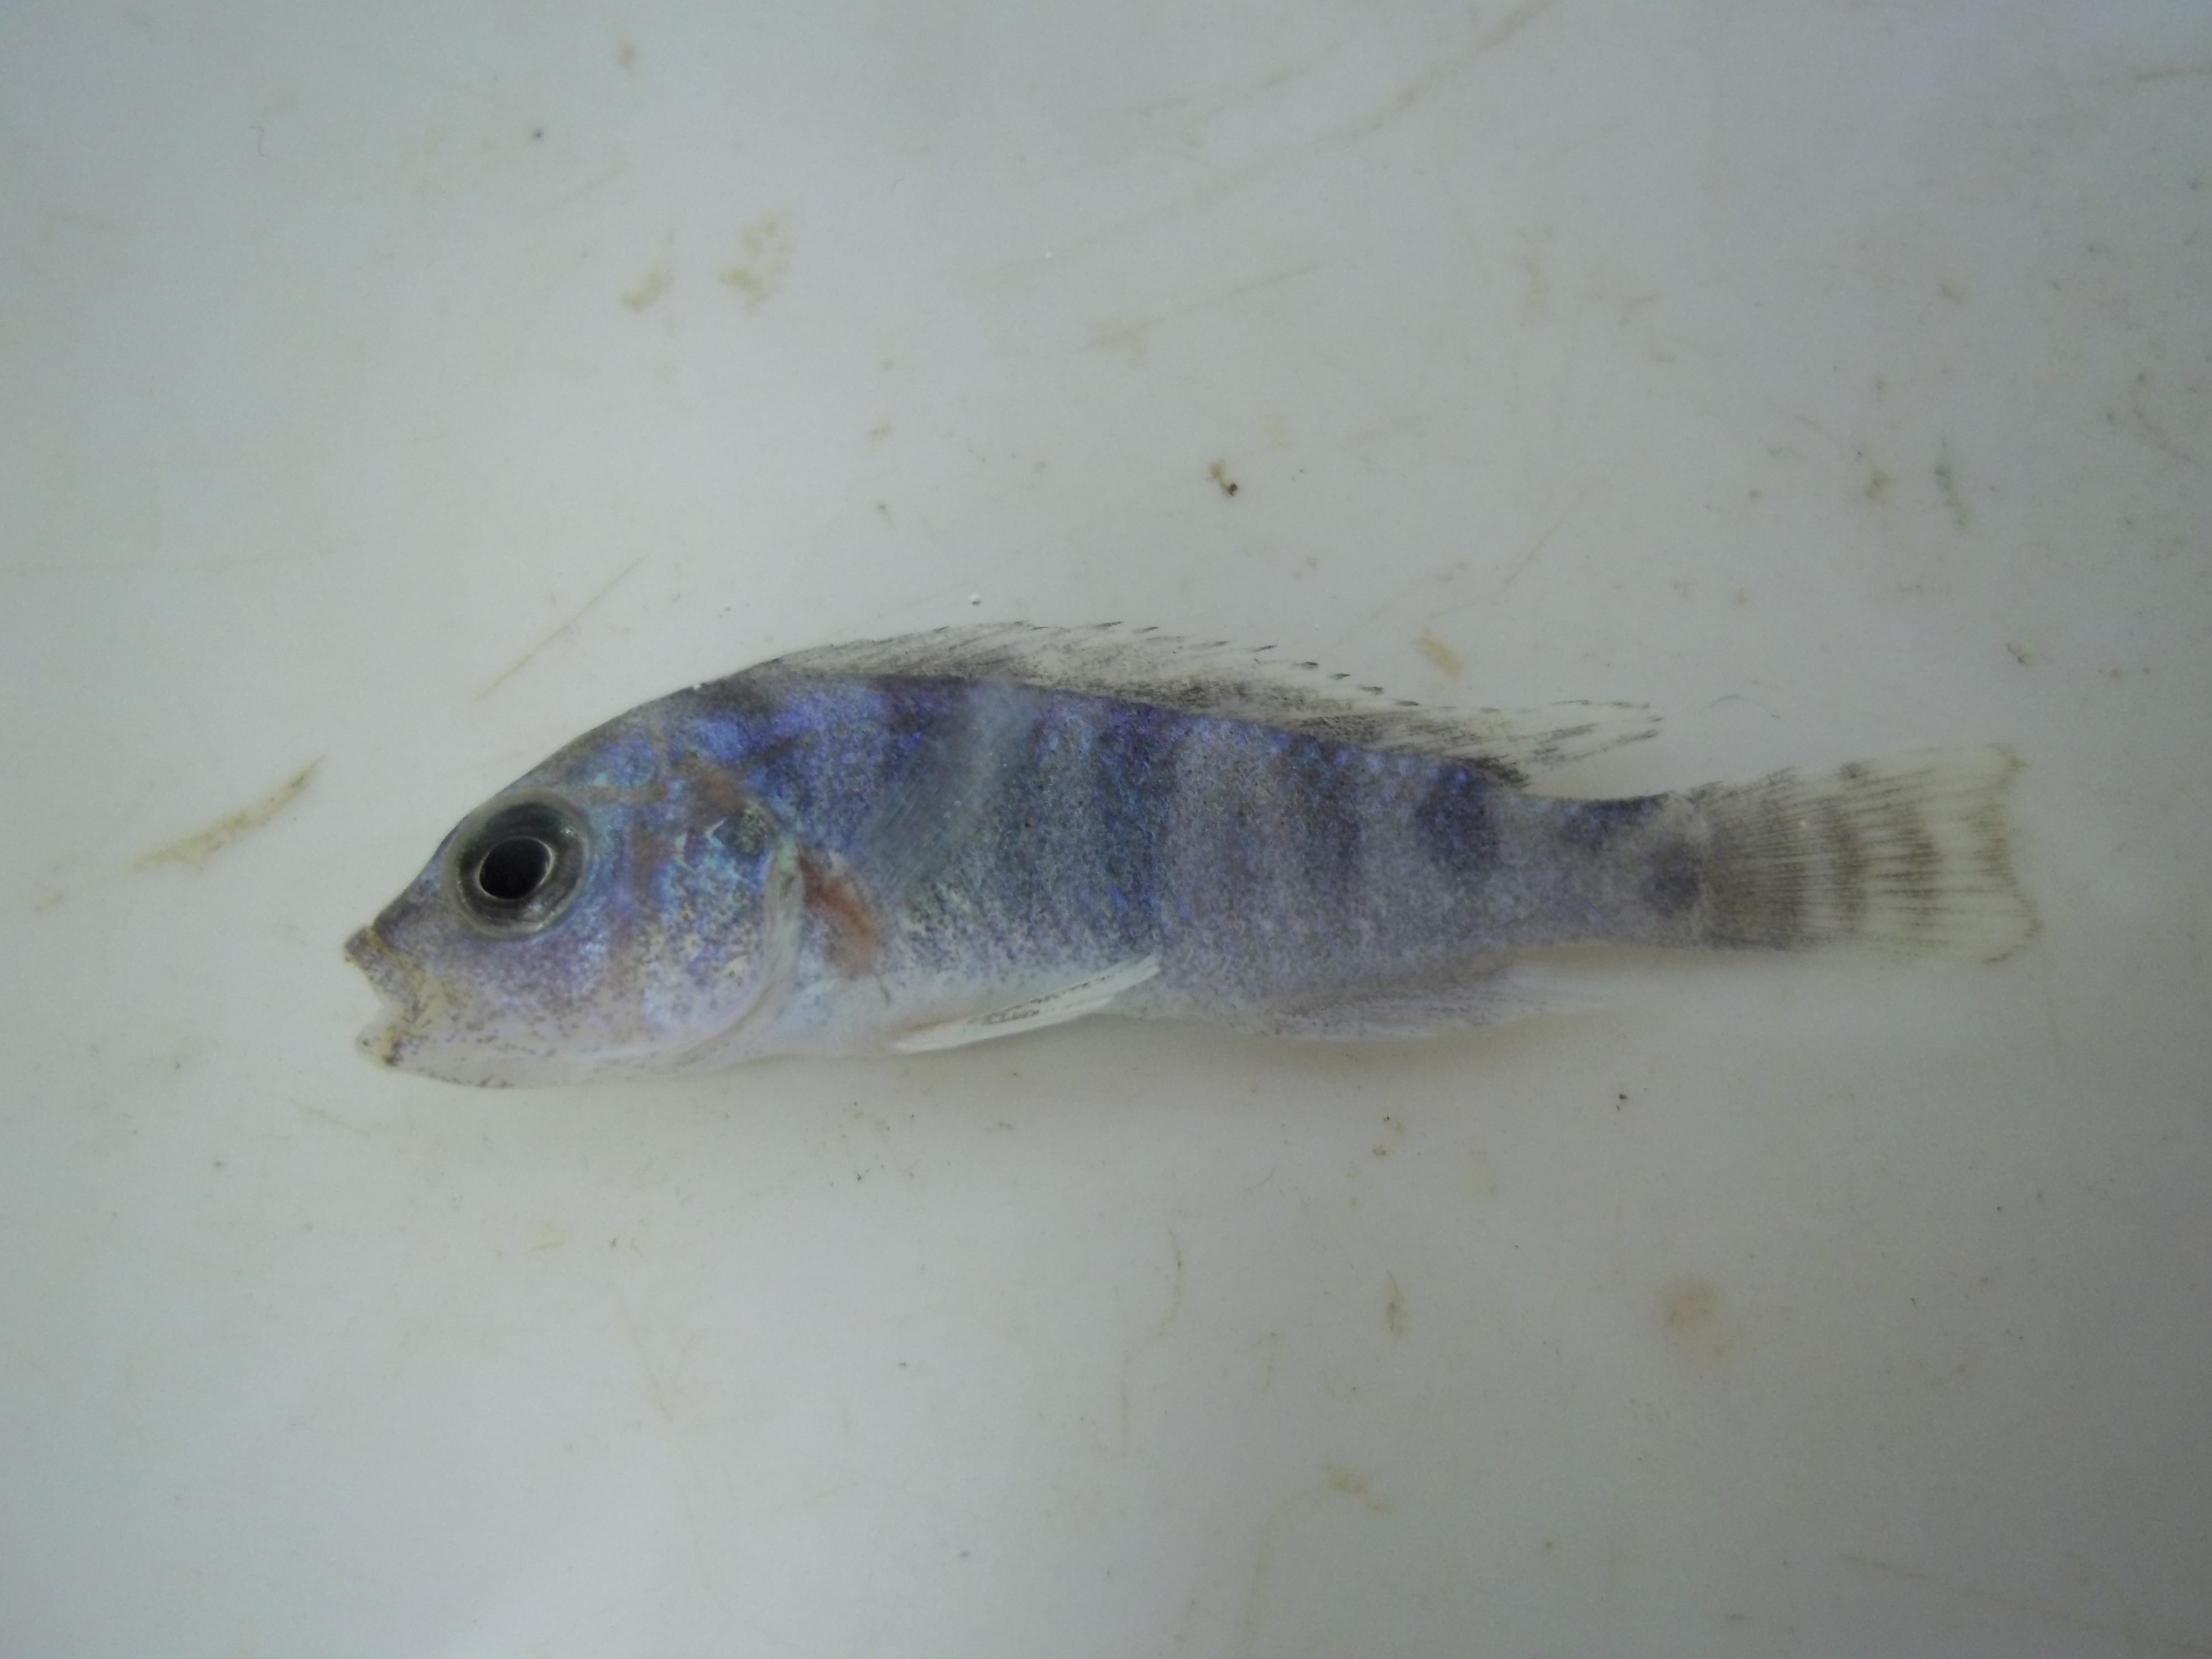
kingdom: Animalia
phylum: Chordata
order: Perciformes
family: Cichlidae
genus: Placidochromis
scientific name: Placidochromis milomo
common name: Super vc-10 hap
